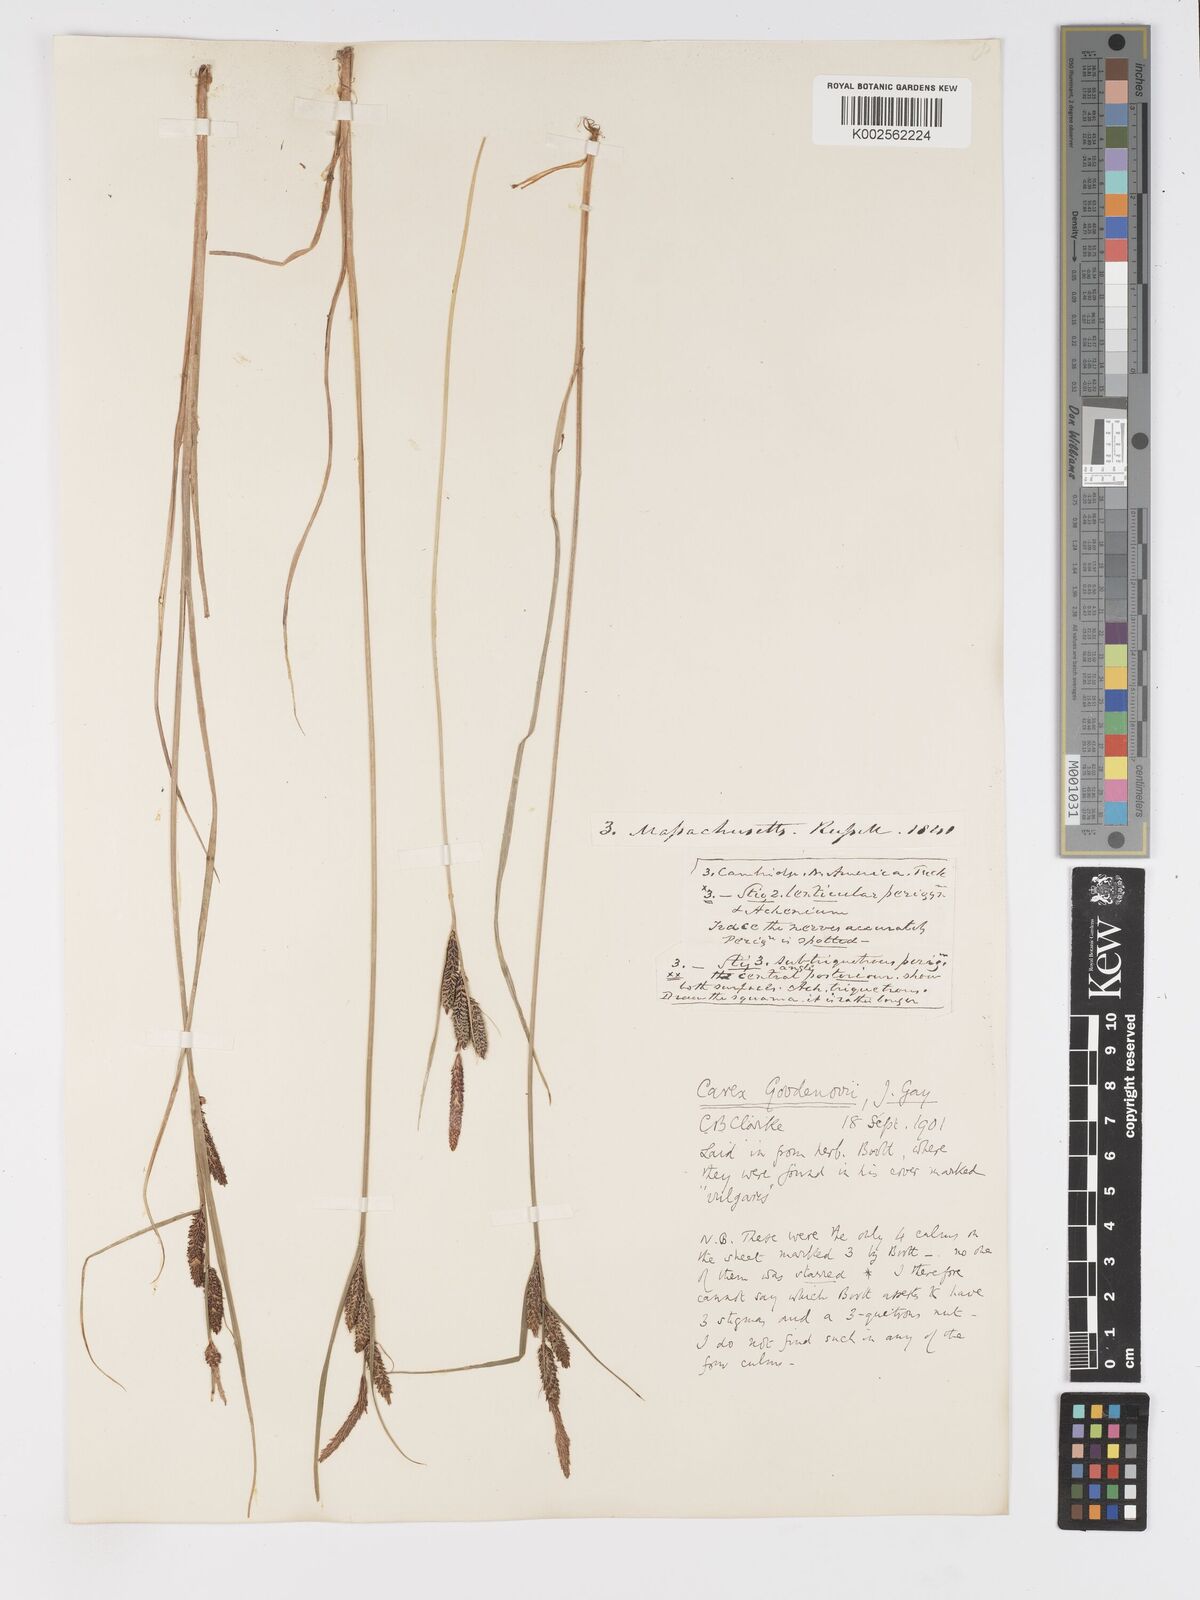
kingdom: Plantae
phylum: Tracheophyta
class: Liliopsida
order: Poales
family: Cyperaceae
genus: Carex
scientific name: Carex nigra
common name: Common sedge
